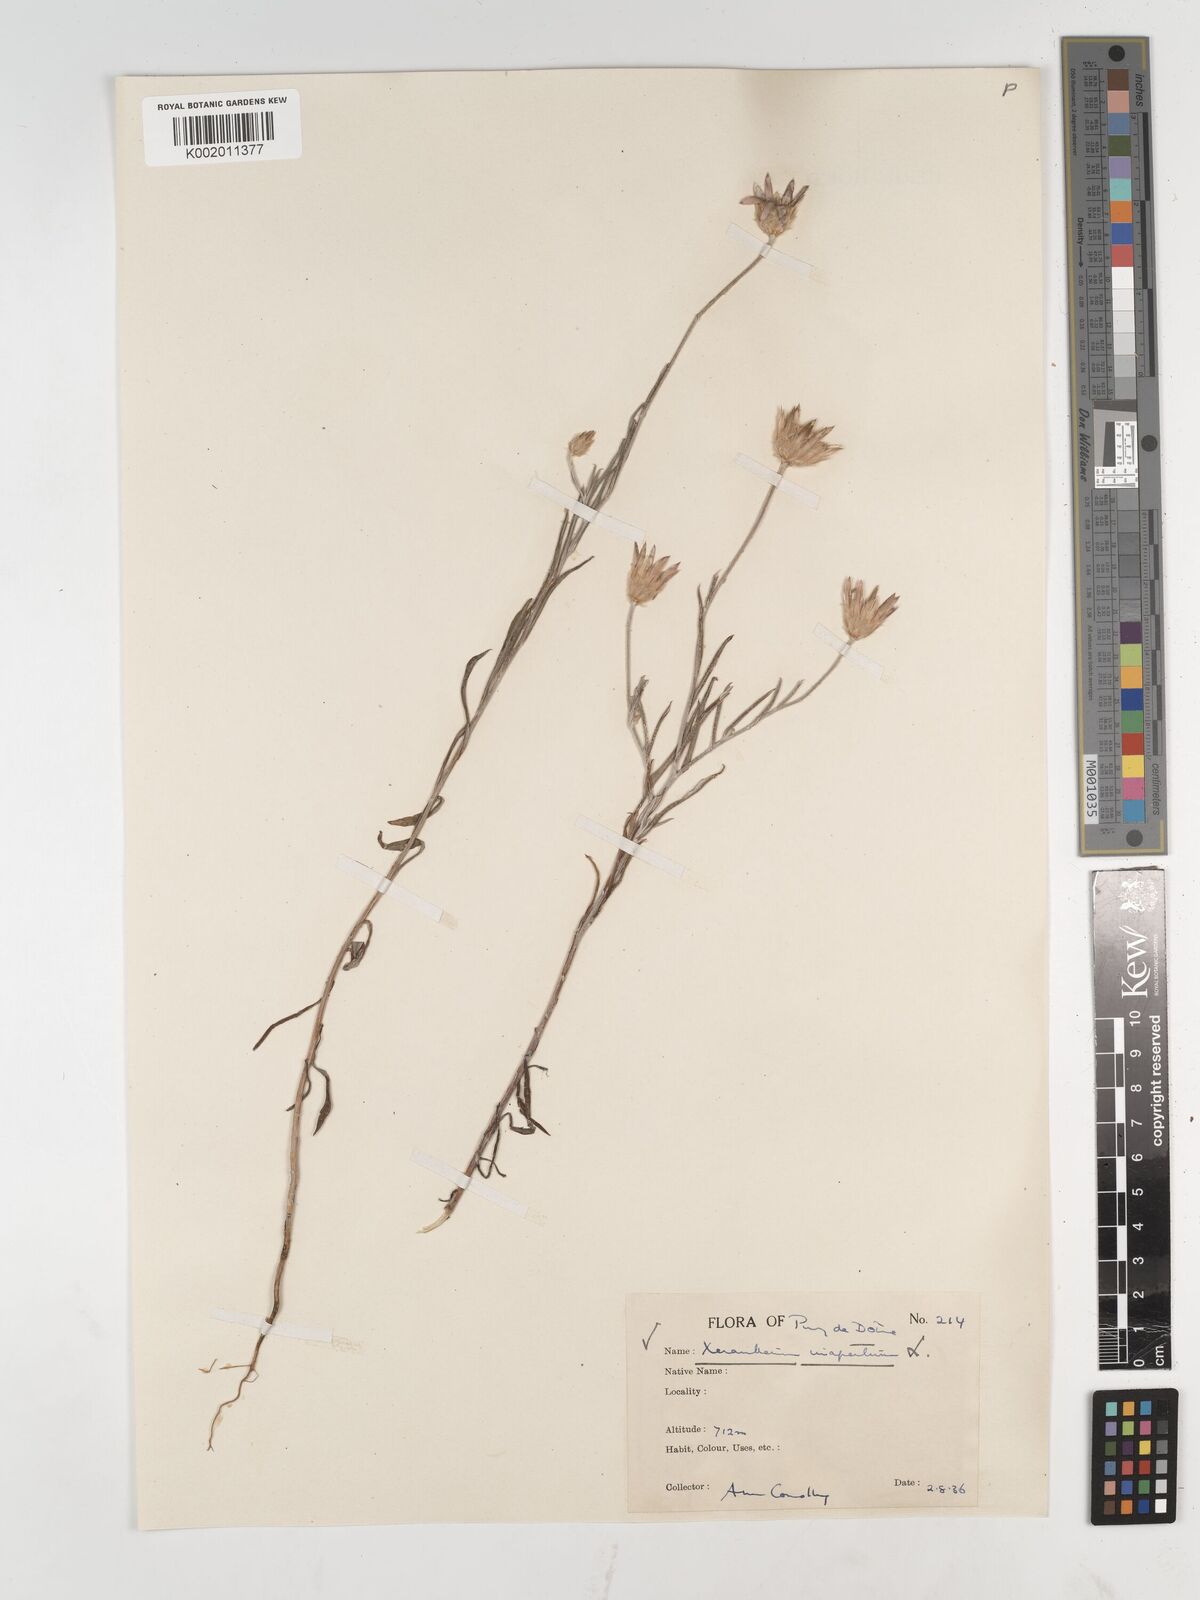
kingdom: Plantae
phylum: Tracheophyta
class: Magnoliopsida
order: Asterales
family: Asteraceae
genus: Xeranthemum
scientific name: Xeranthemum inapertum
